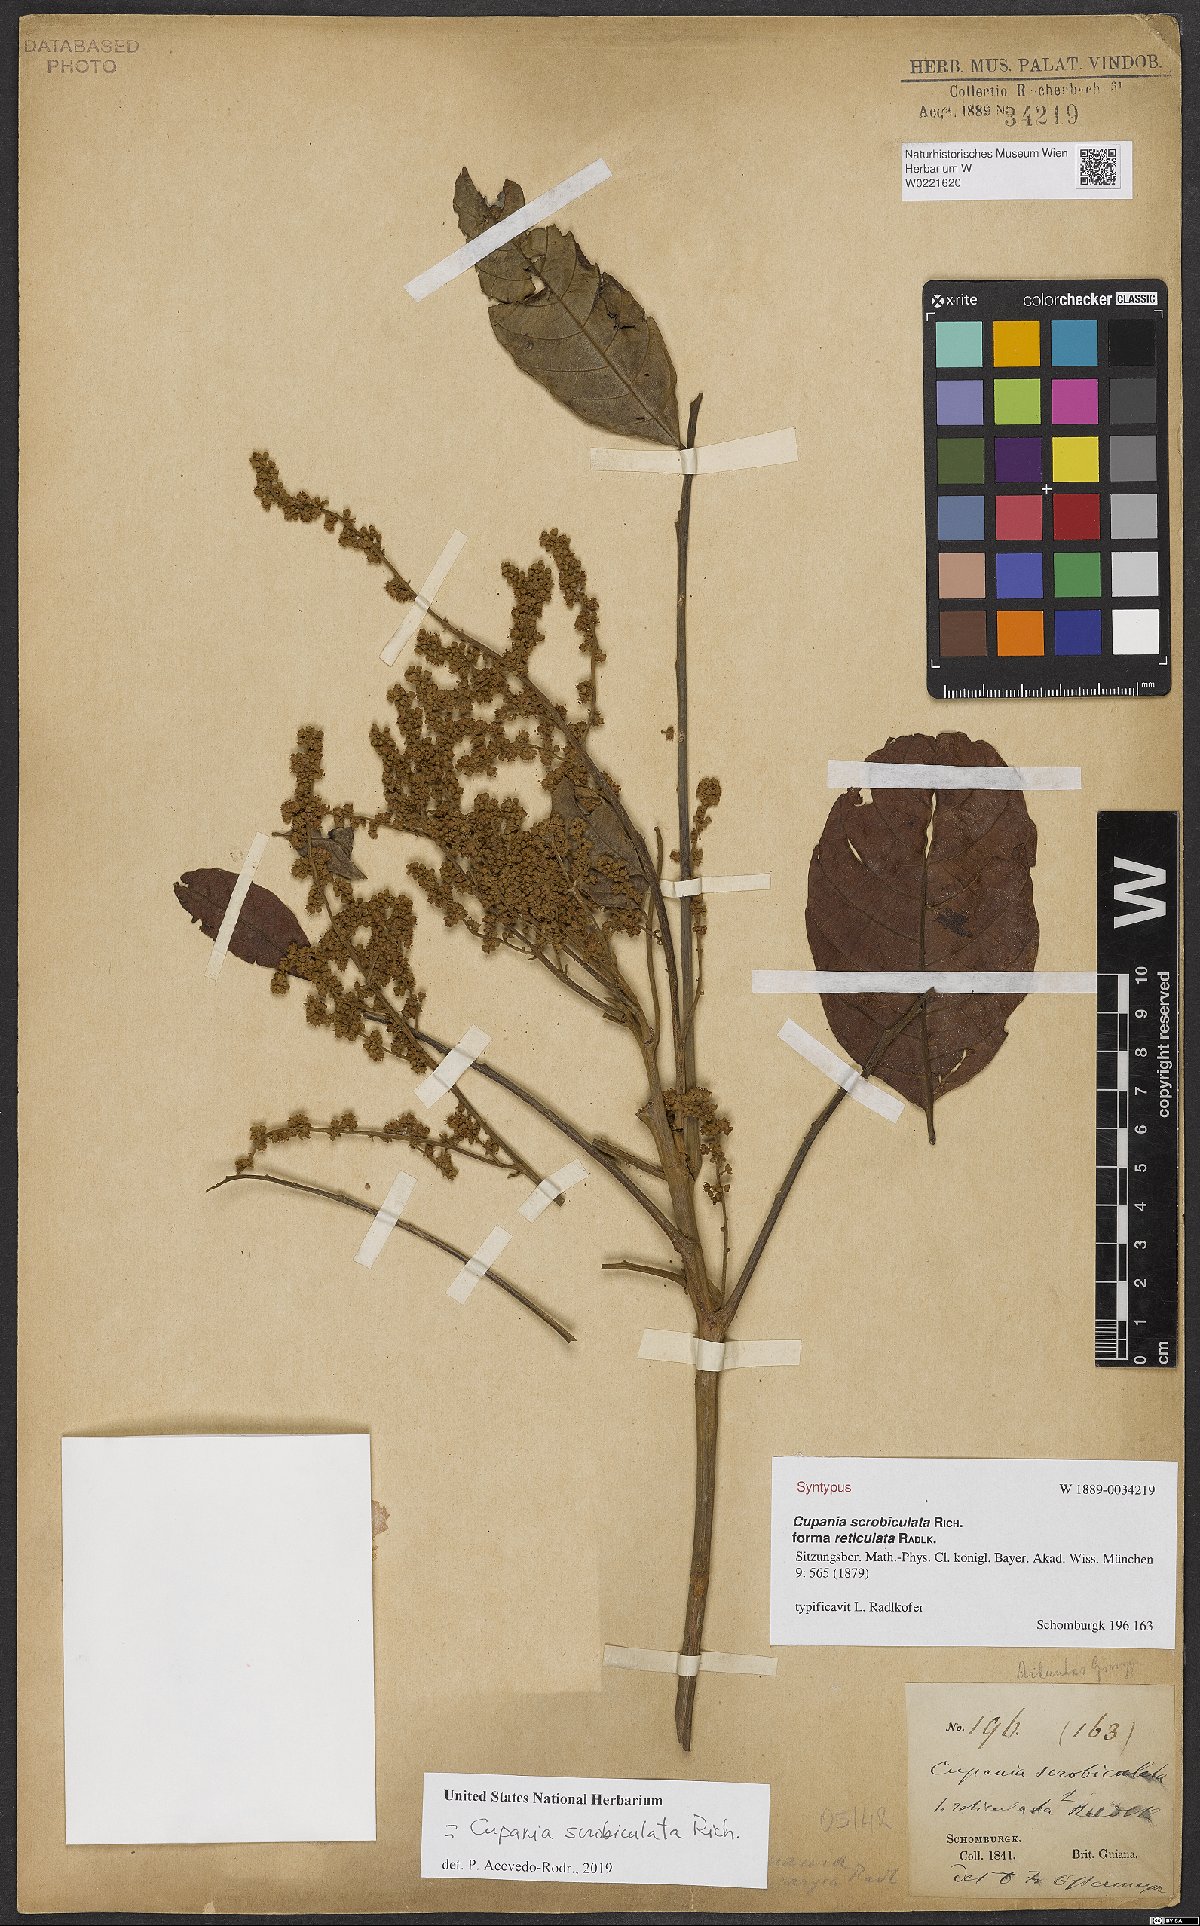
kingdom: Plantae
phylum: Tracheophyta
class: Magnoliopsida
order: Sapindales
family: Sapindaceae
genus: Cupania
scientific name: Cupania scrobiculata
